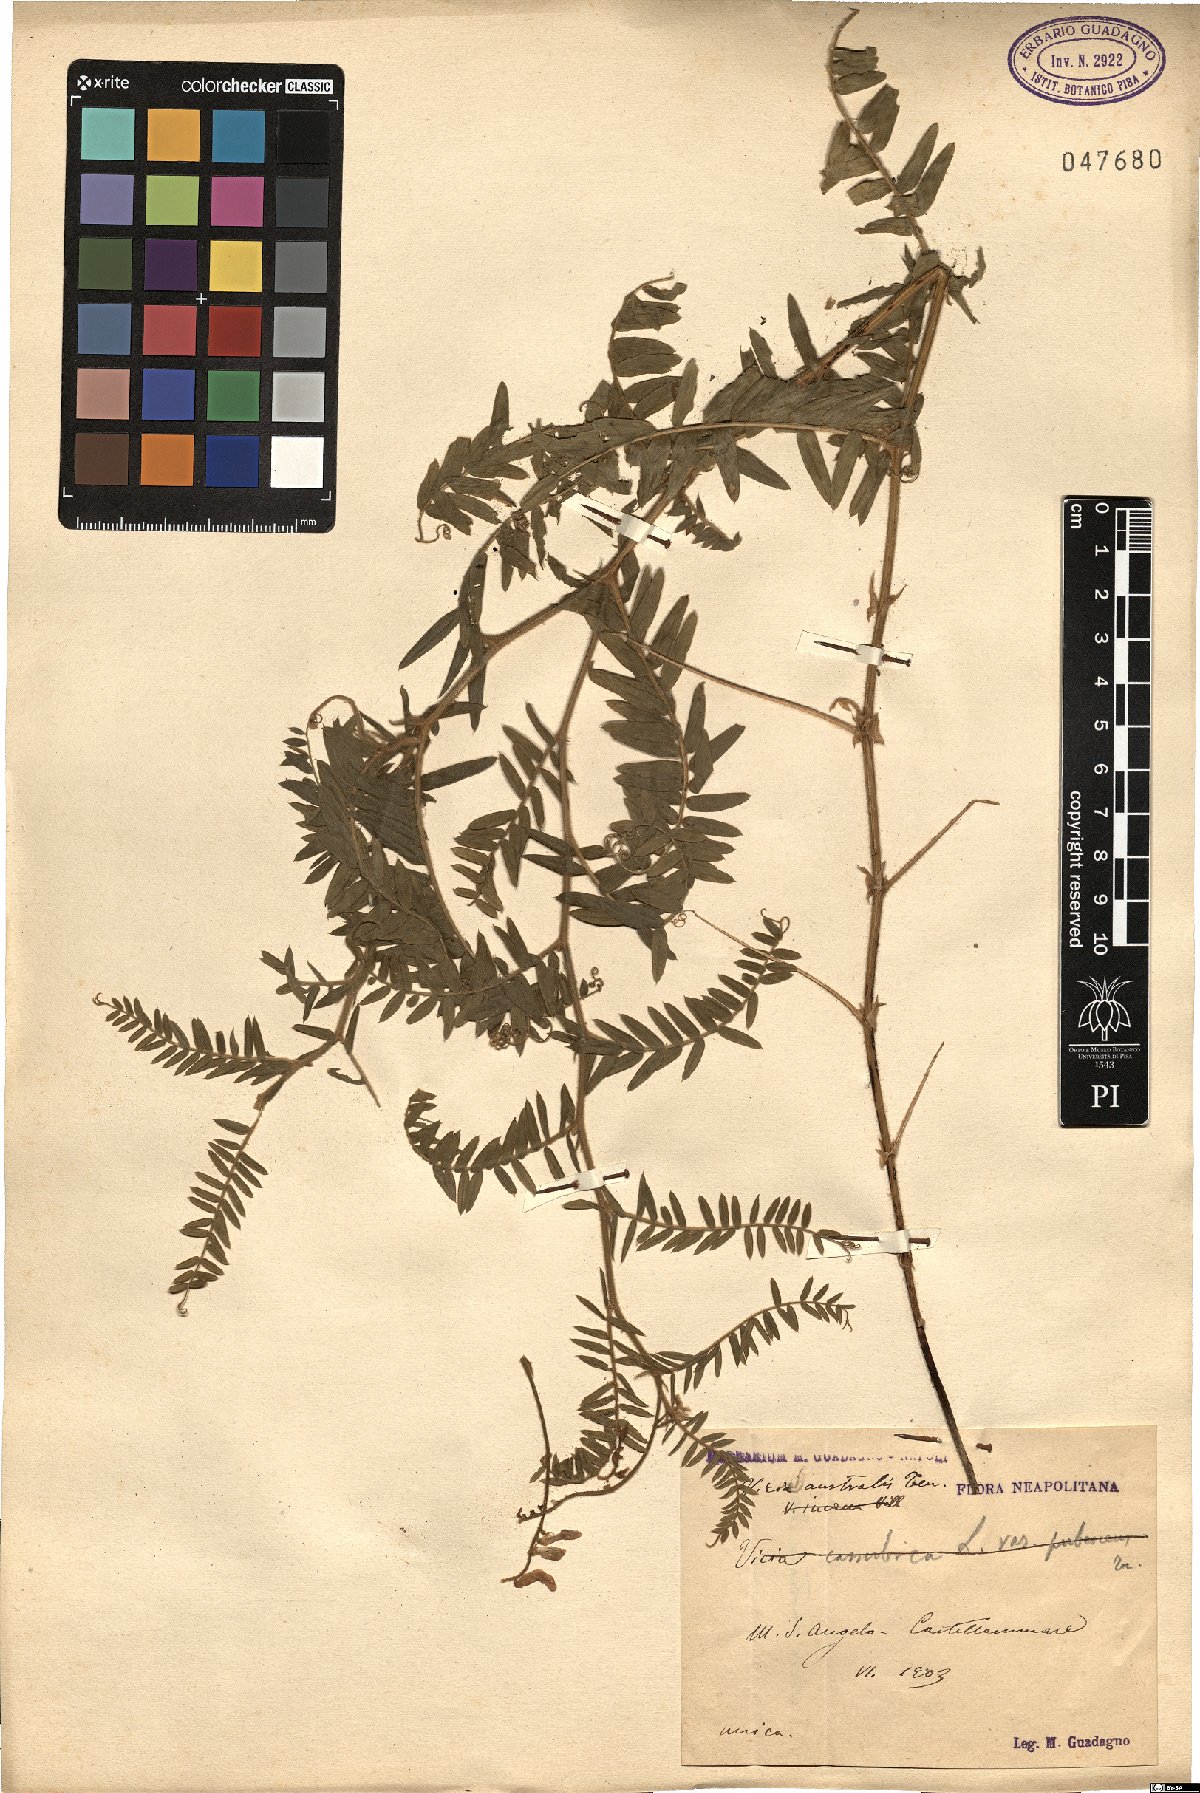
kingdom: Plantae
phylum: Tracheophyta
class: Magnoliopsida
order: Fabales
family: Fabaceae
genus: Vicia
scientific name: Vicia cracca
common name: Bird vetch
